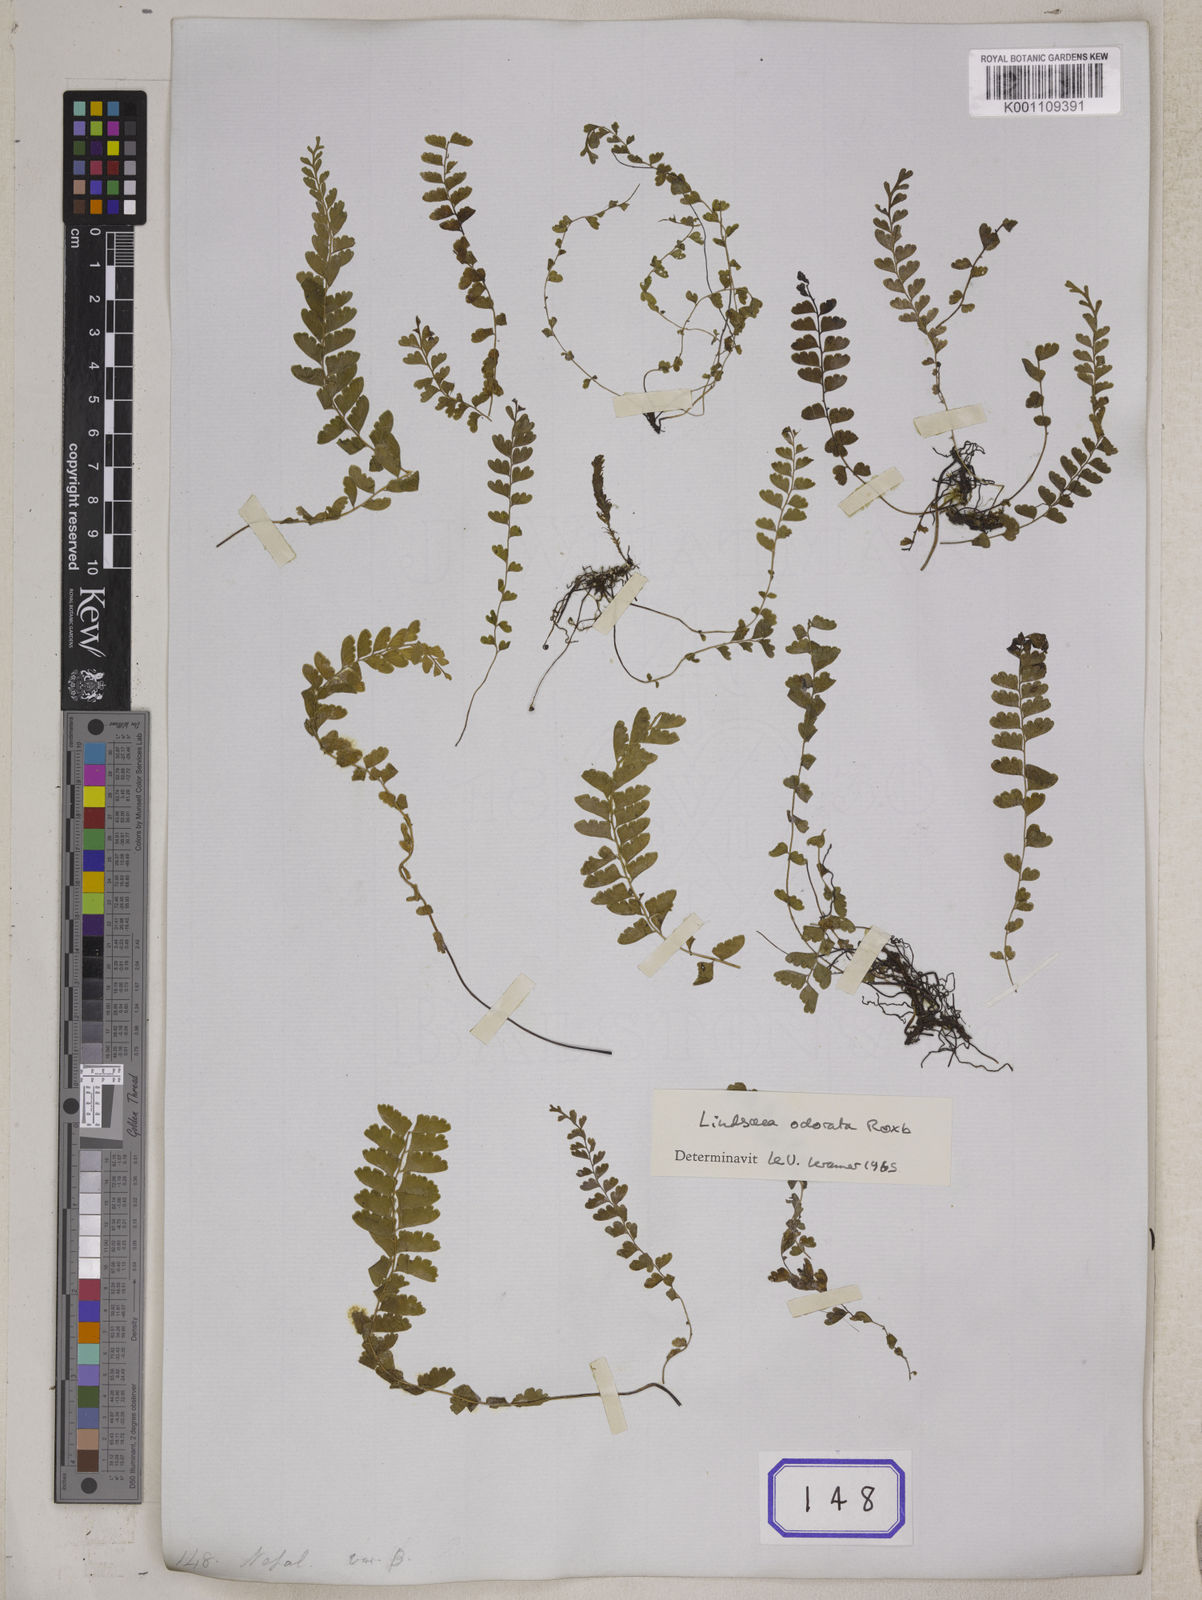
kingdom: Plantae
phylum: Tracheophyta
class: Polypodiopsida
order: Polypodiales
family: Lindsaeaceae
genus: Lindsaea
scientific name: Lindsaea cultrata
